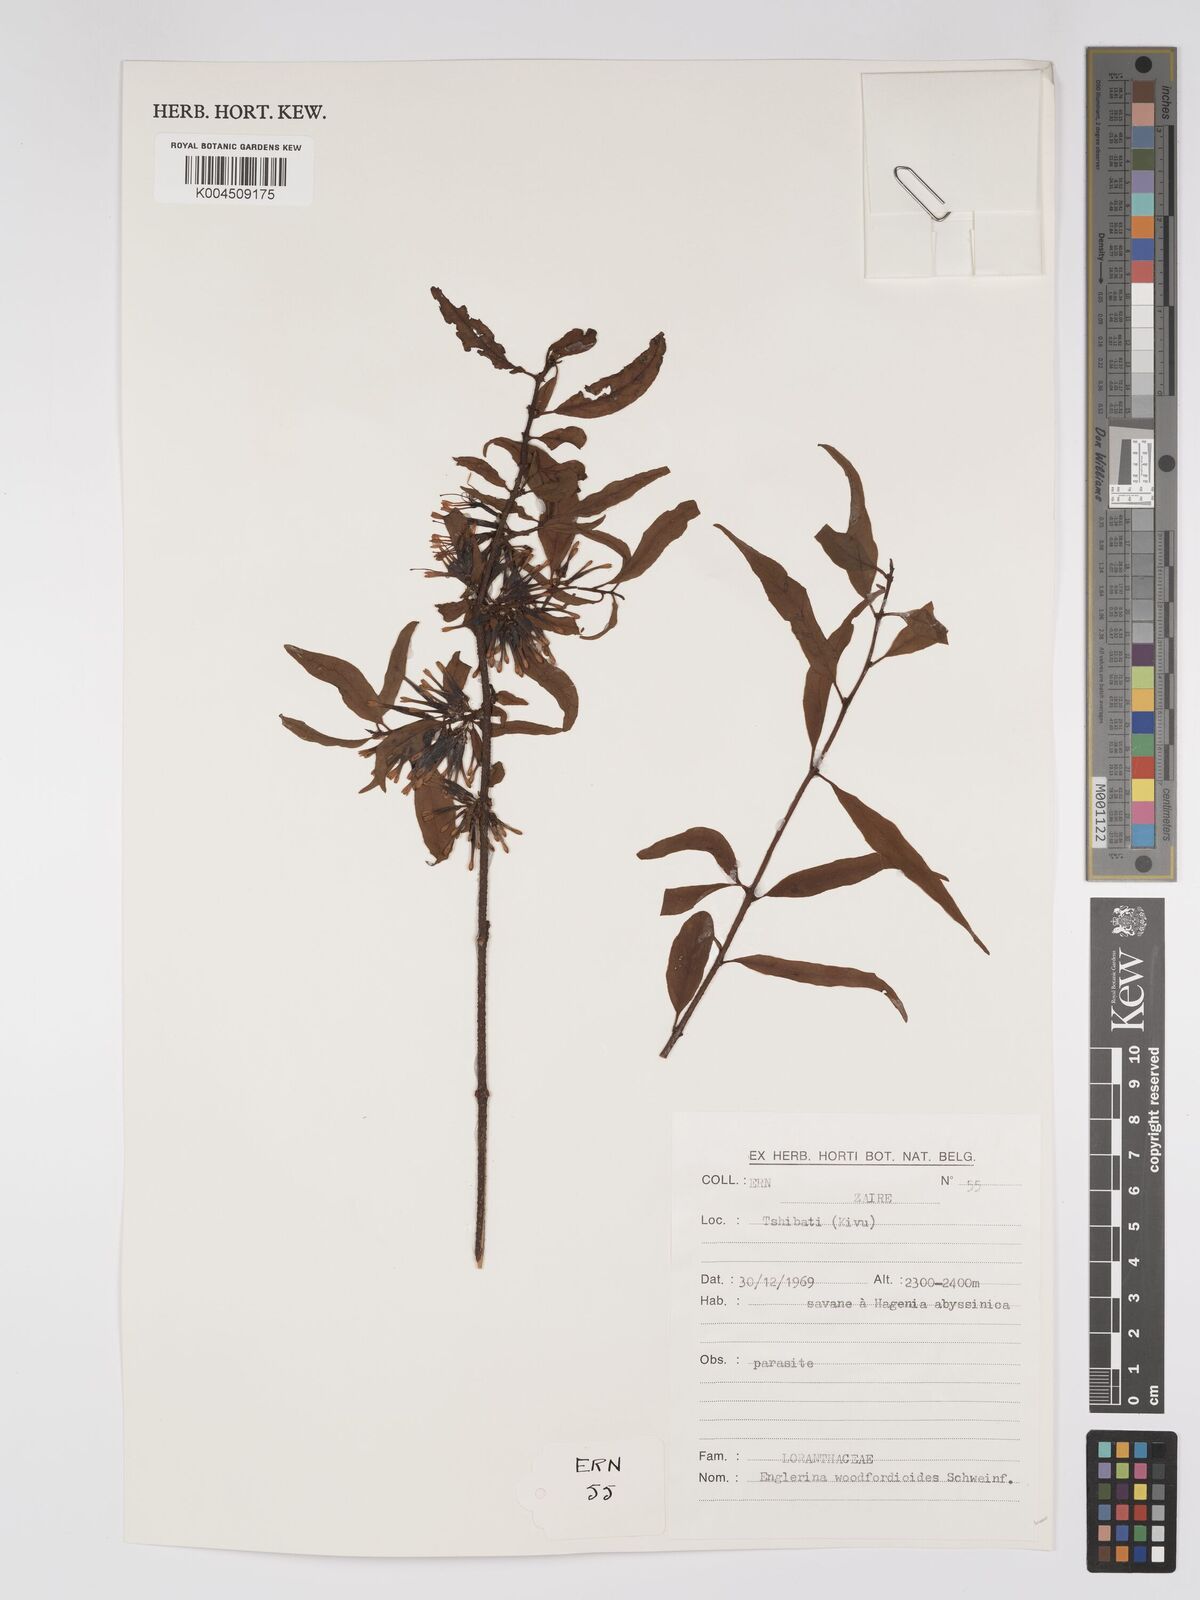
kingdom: Plantae
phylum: Tracheophyta
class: Magnoliopsida
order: Santalales
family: Loranthaceae
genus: Englerina
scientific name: Englerina woodfordioides
